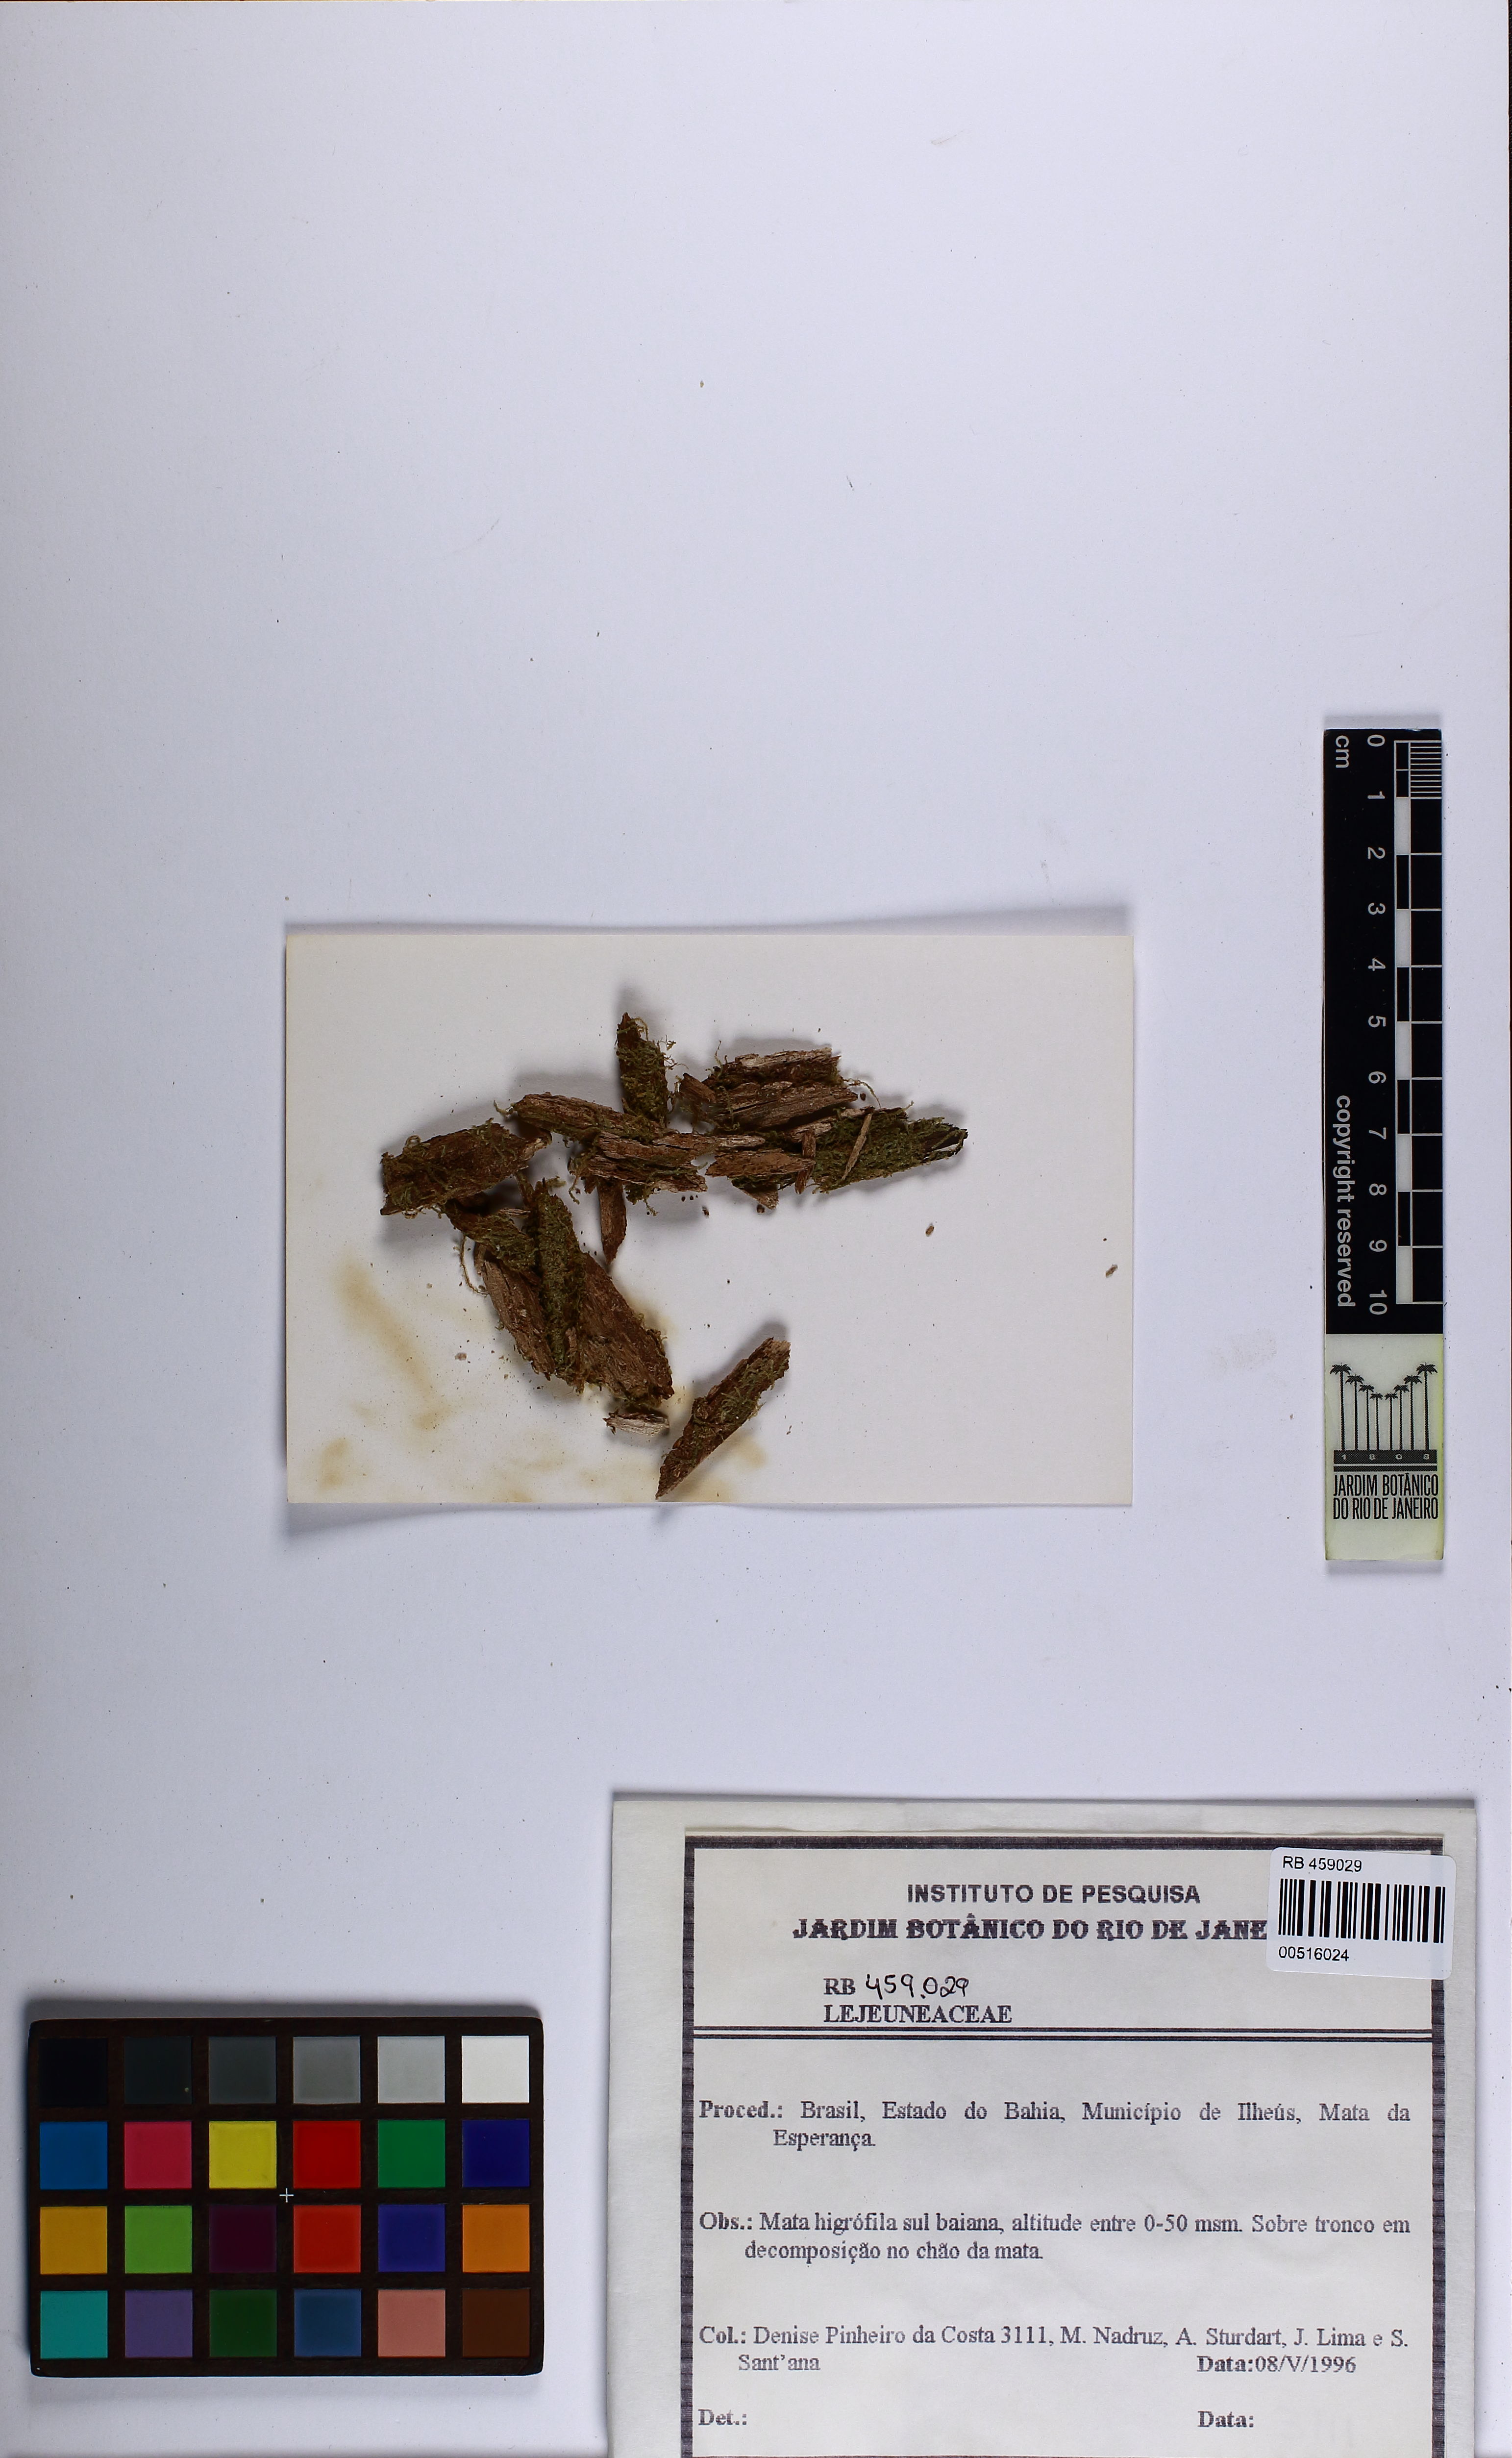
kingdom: Plantae
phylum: Marchantiophyta
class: Jungermanniopsida
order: Porellales
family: Lejeuneaceae
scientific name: Lejeuneaceae
